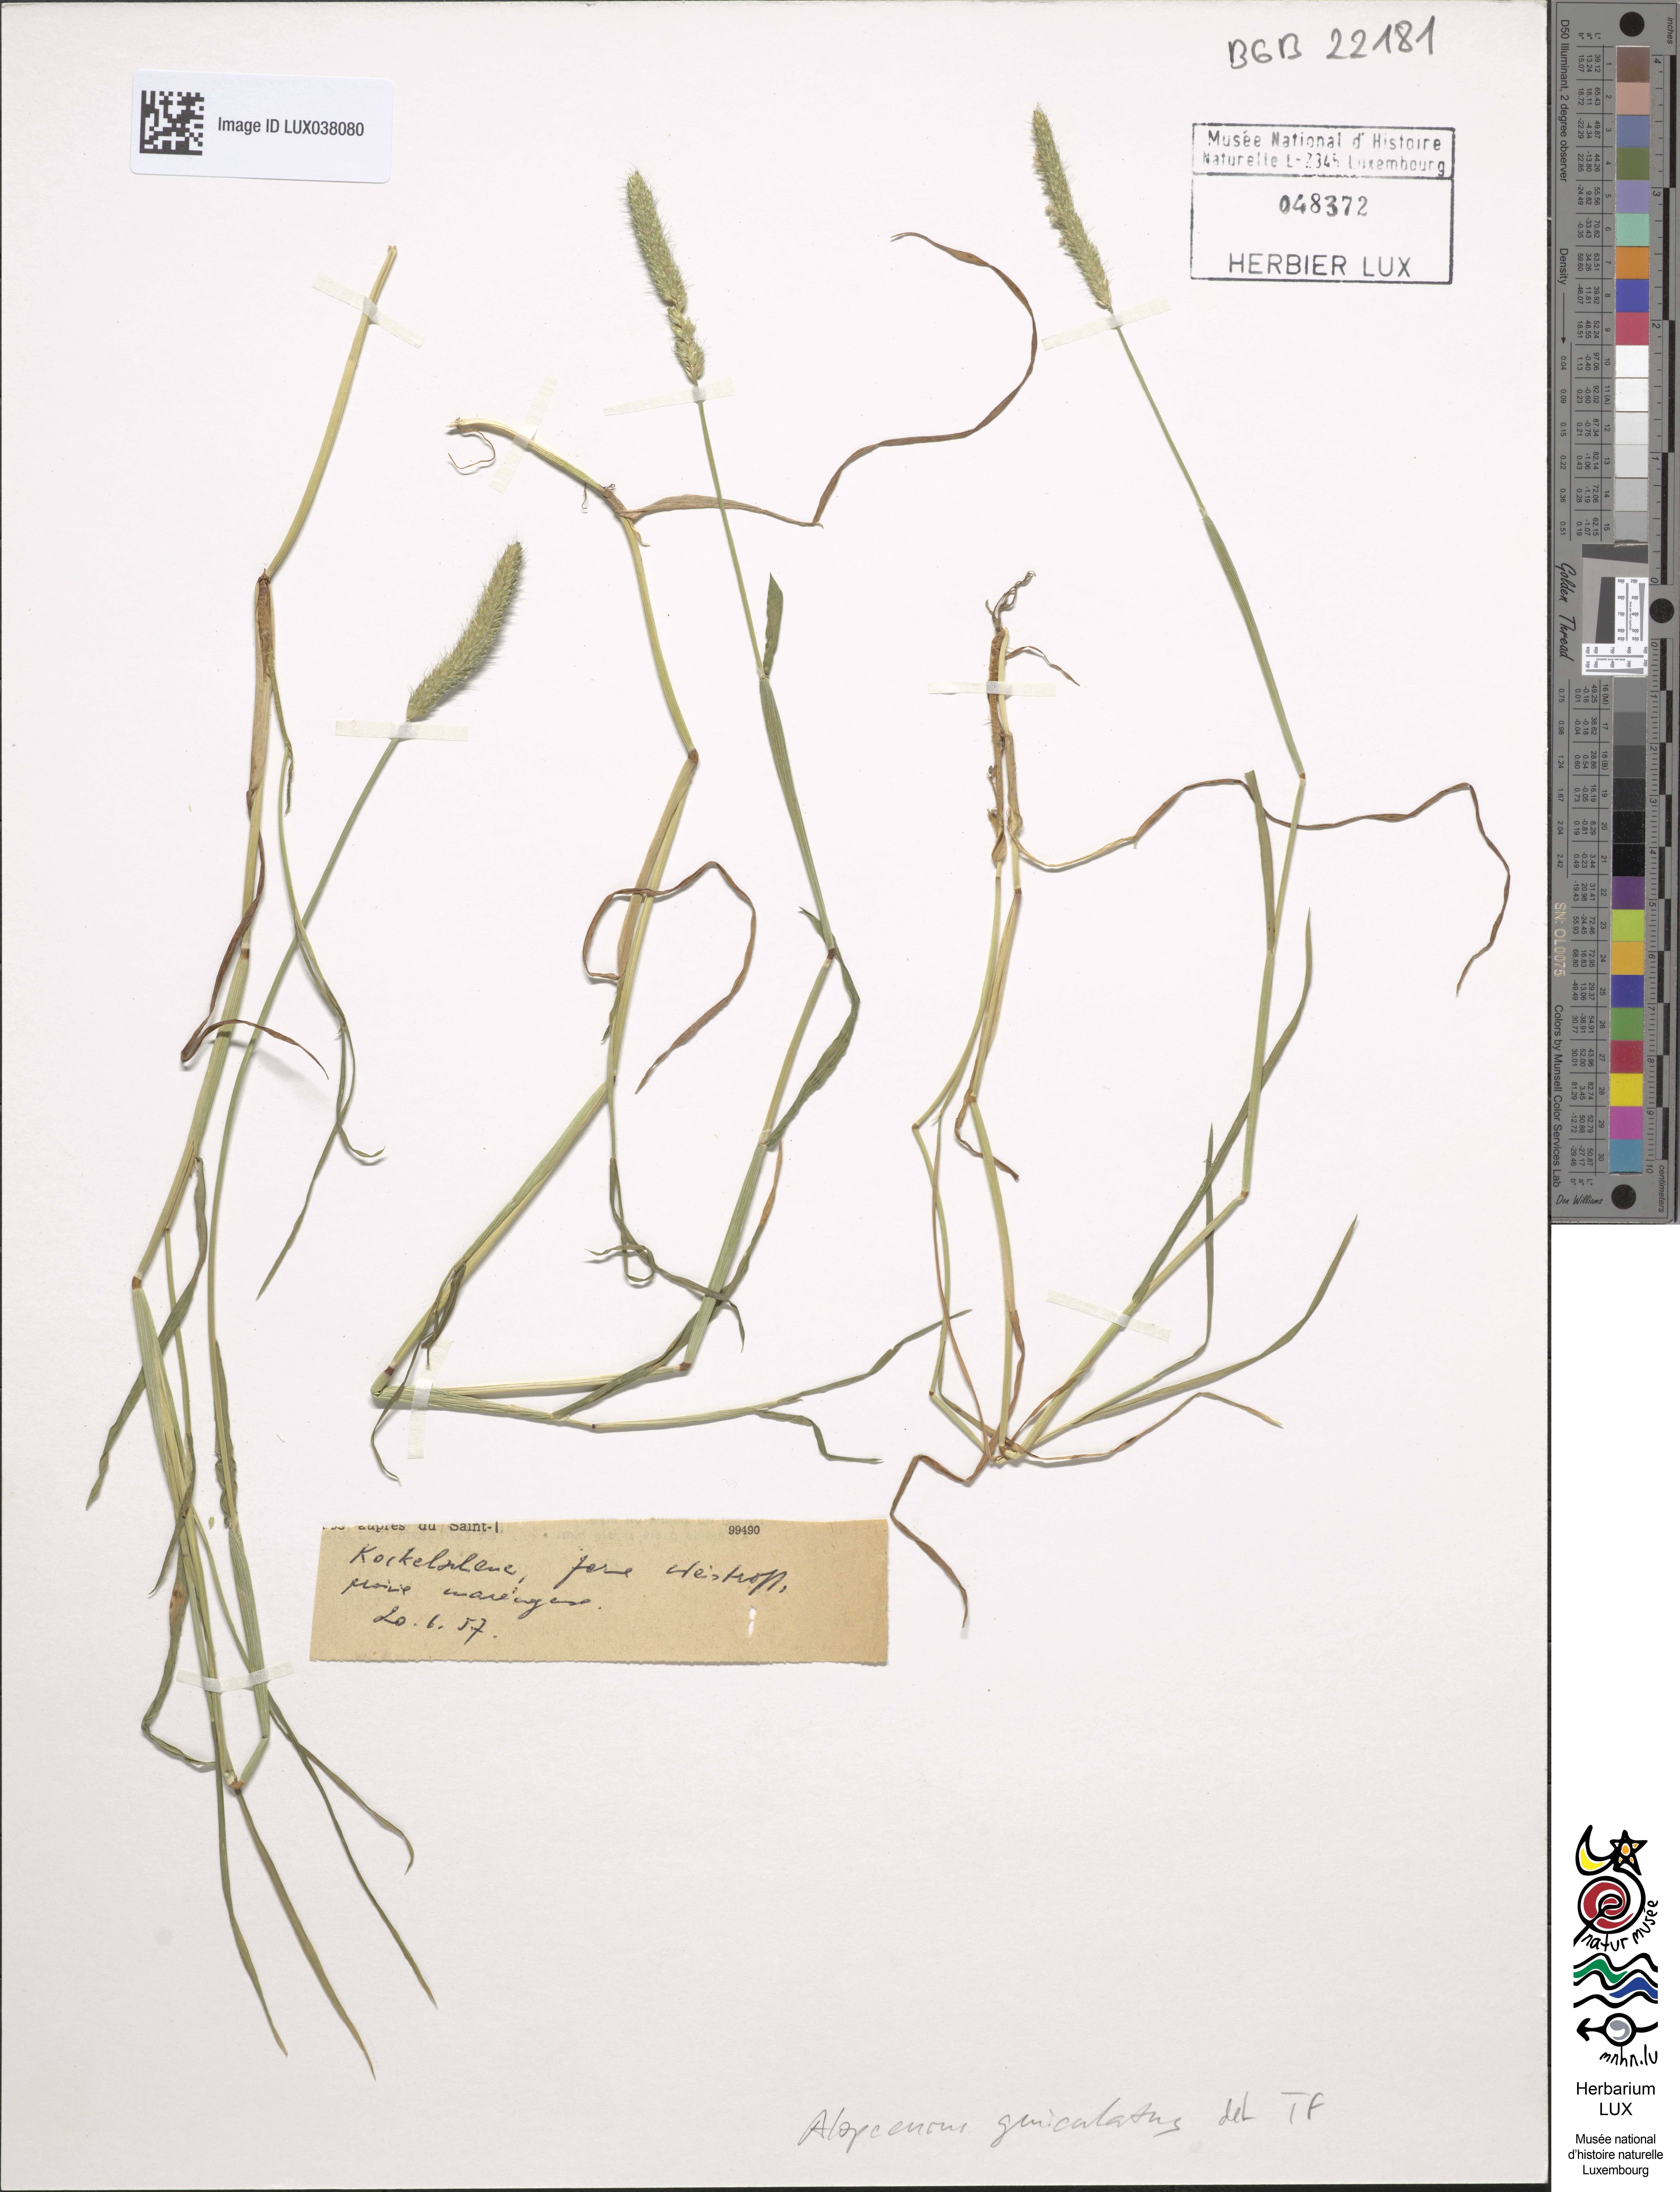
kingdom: Plantae
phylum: Tracheophyta
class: Liliopsida
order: Poales
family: Poaceae
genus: Alopecurus
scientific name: Alopecurus geniculatus
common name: Water foxtail
